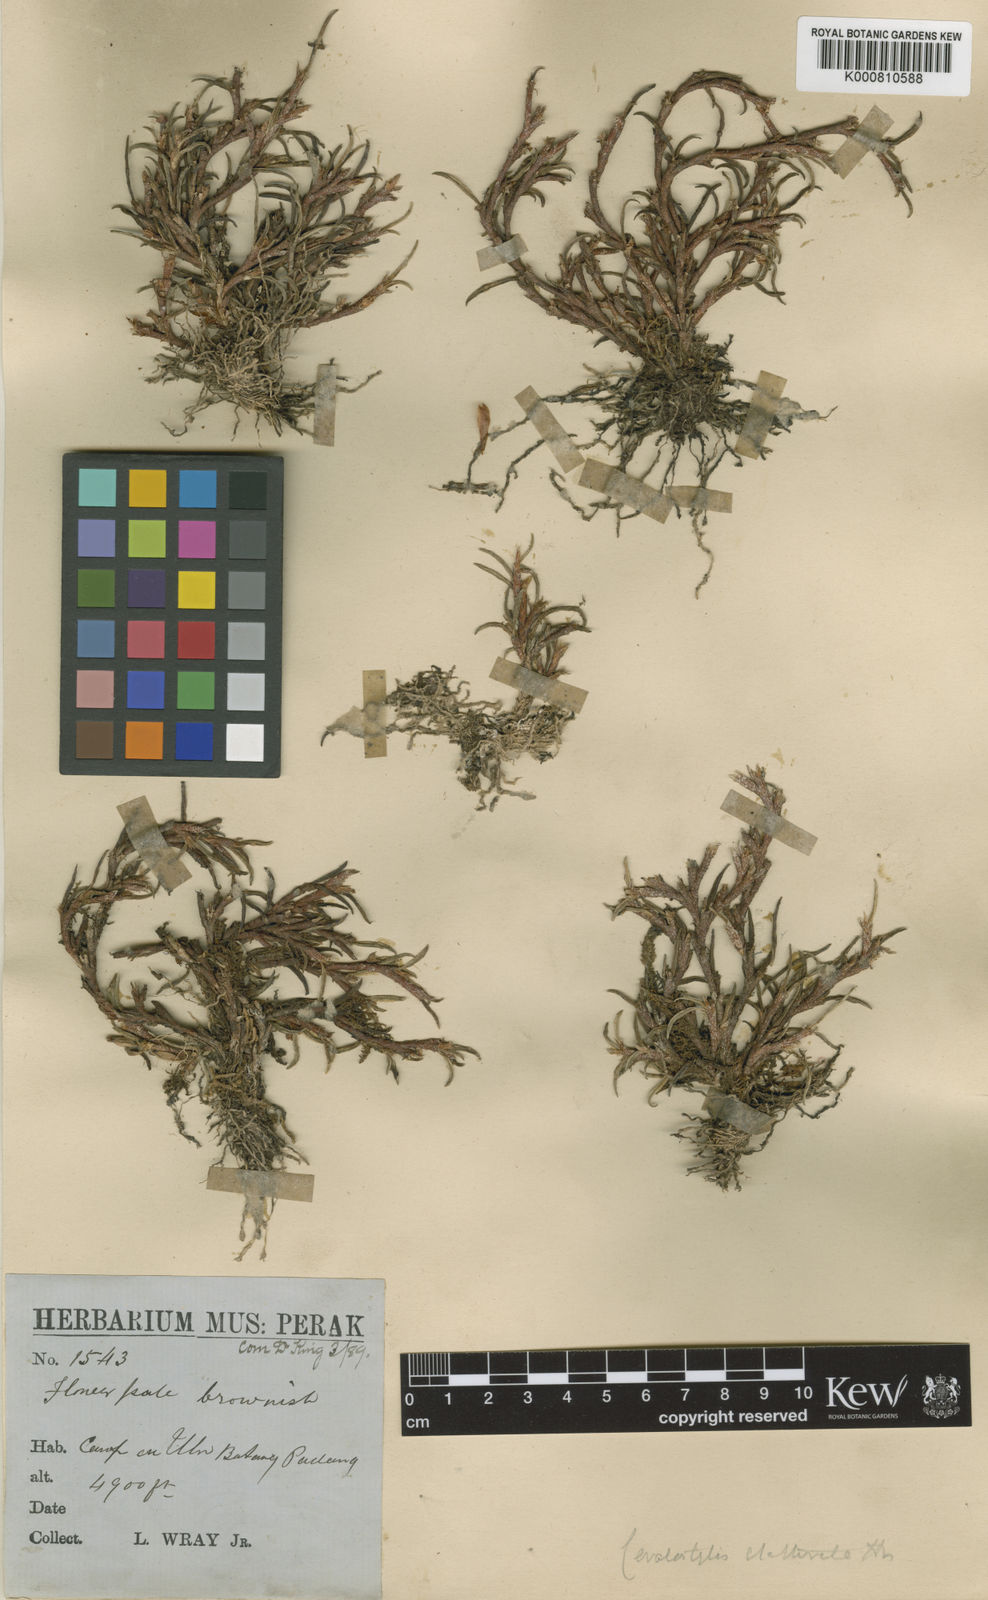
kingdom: Plantae
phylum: Tracheophyta
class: Liliopsida
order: Asparagales
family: Orchidaceae
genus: Ceratostylis
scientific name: Ceratostylis clathrata
